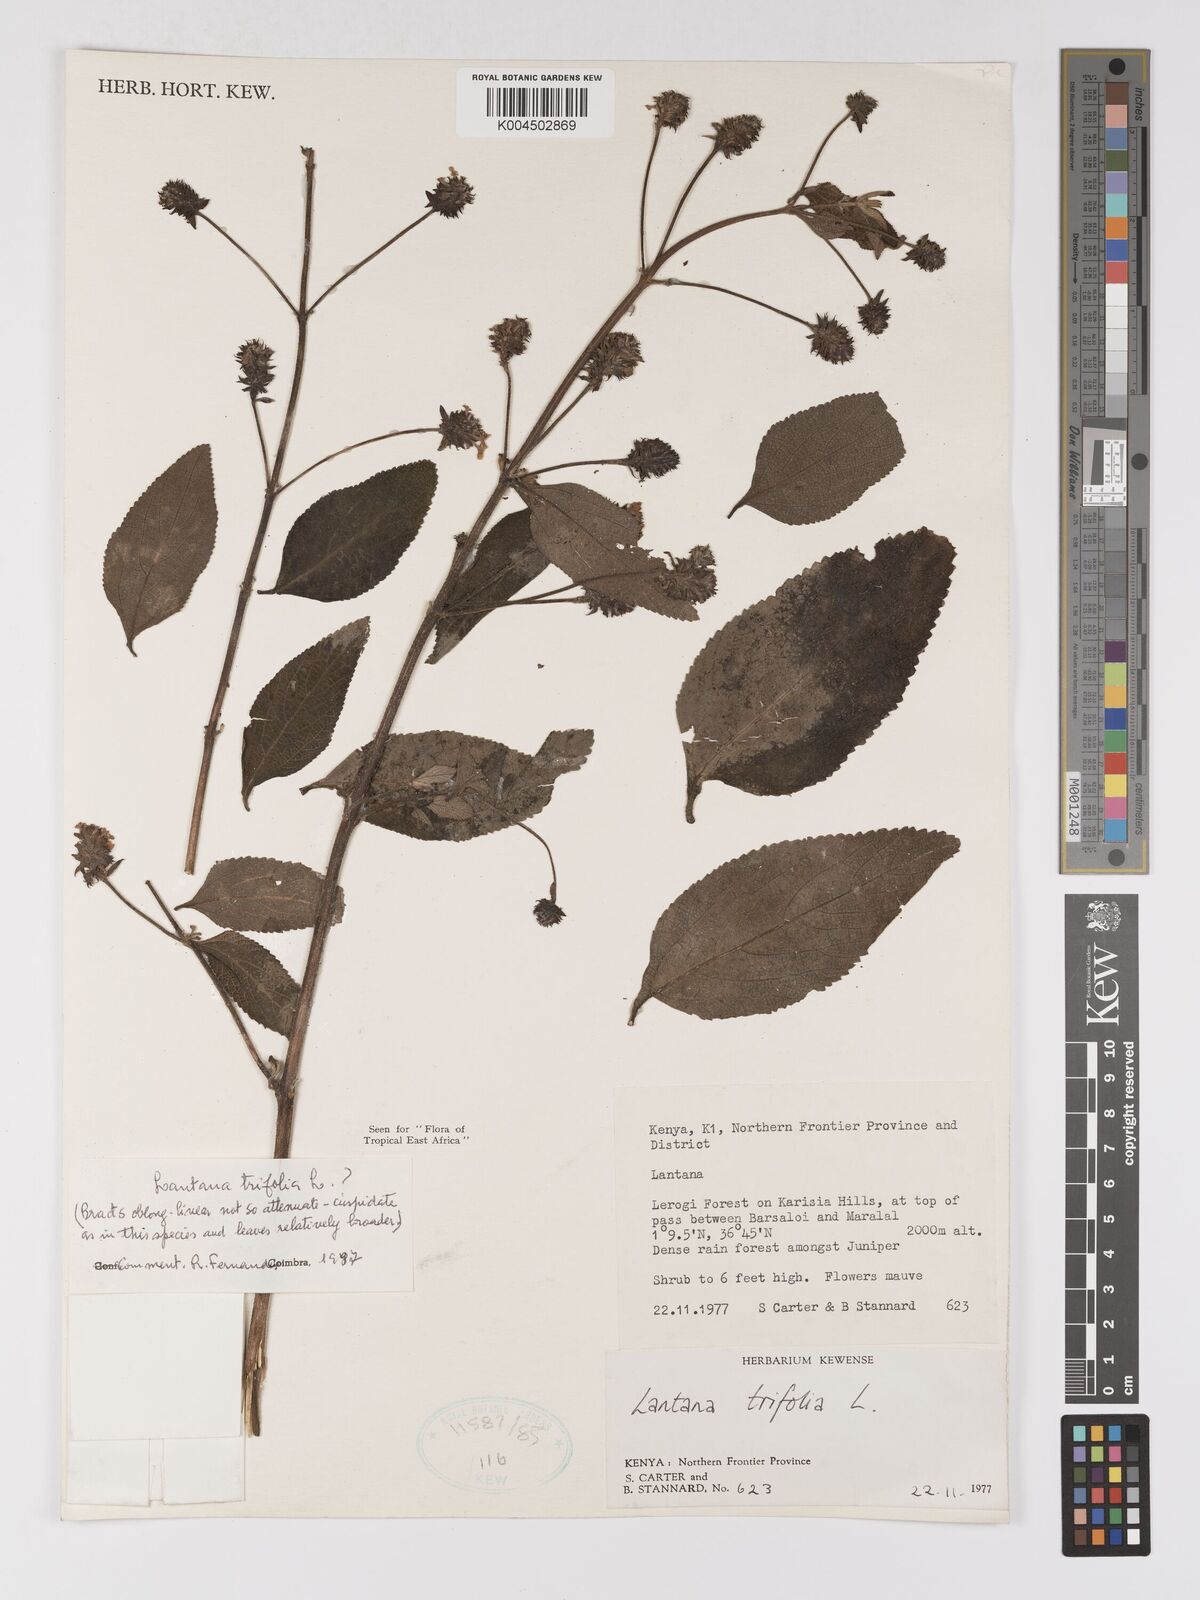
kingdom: Plantae
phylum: Tracheophyta
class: Magnoliopsida
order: Lamiales
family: Verbenaceae
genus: Lantana
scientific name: Lantana trifolia
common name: Sweet-sage
